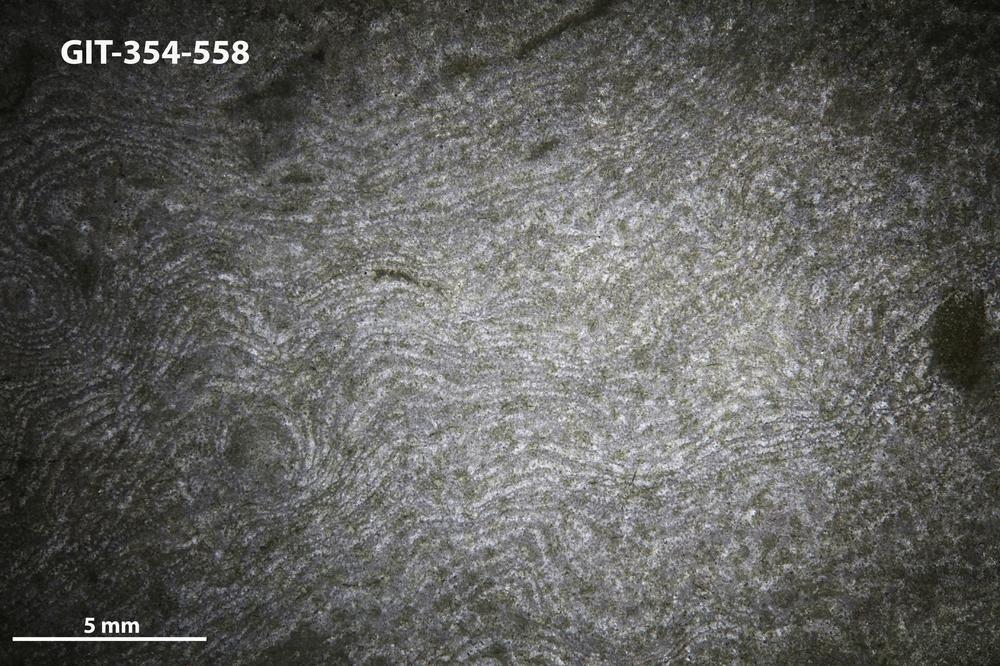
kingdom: Animalia
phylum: Porifera
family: Clathrodictyidae
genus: Clathrodictyon
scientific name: Clathrodictyon Stromatopora variolaris
